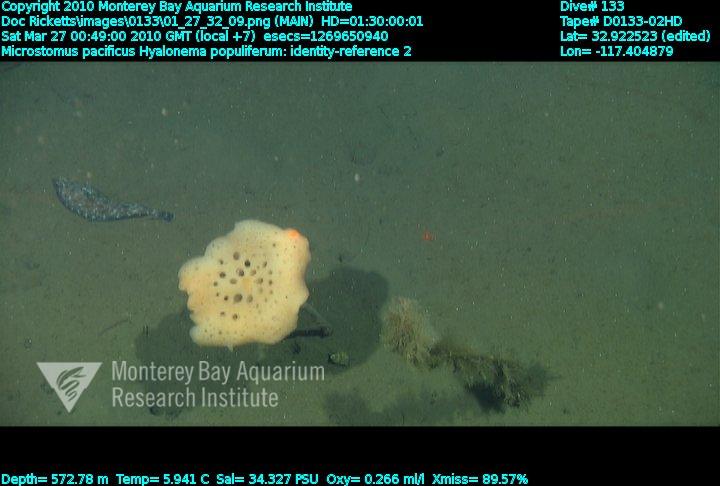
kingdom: Animalia
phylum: Porifera
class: Hexactinellida
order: Amphidiscosida
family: Hyalonematidae
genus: Hyalonema
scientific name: Hyalonema populiferum
